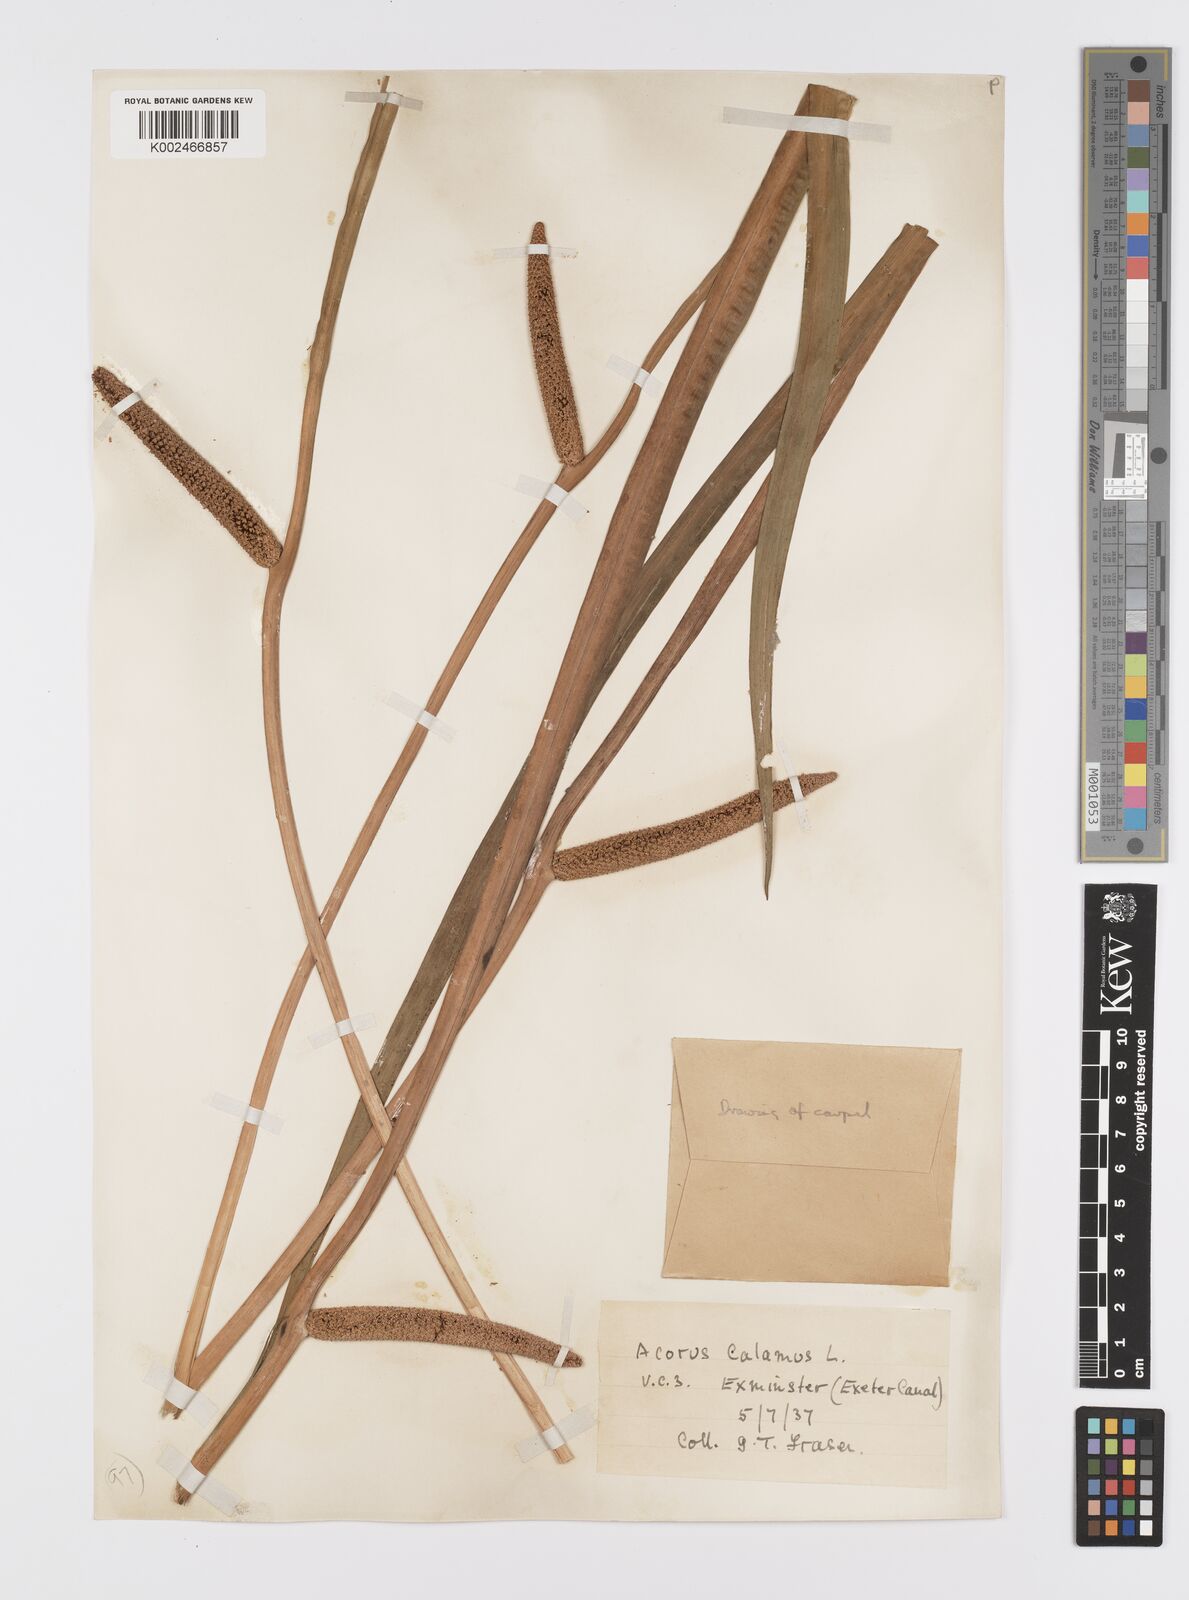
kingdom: Plantae
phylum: Tracheophyta
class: Liliopsida
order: Acorales
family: Acoraceae
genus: Acorus
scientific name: Acorus calamus
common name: Sweet-flag
